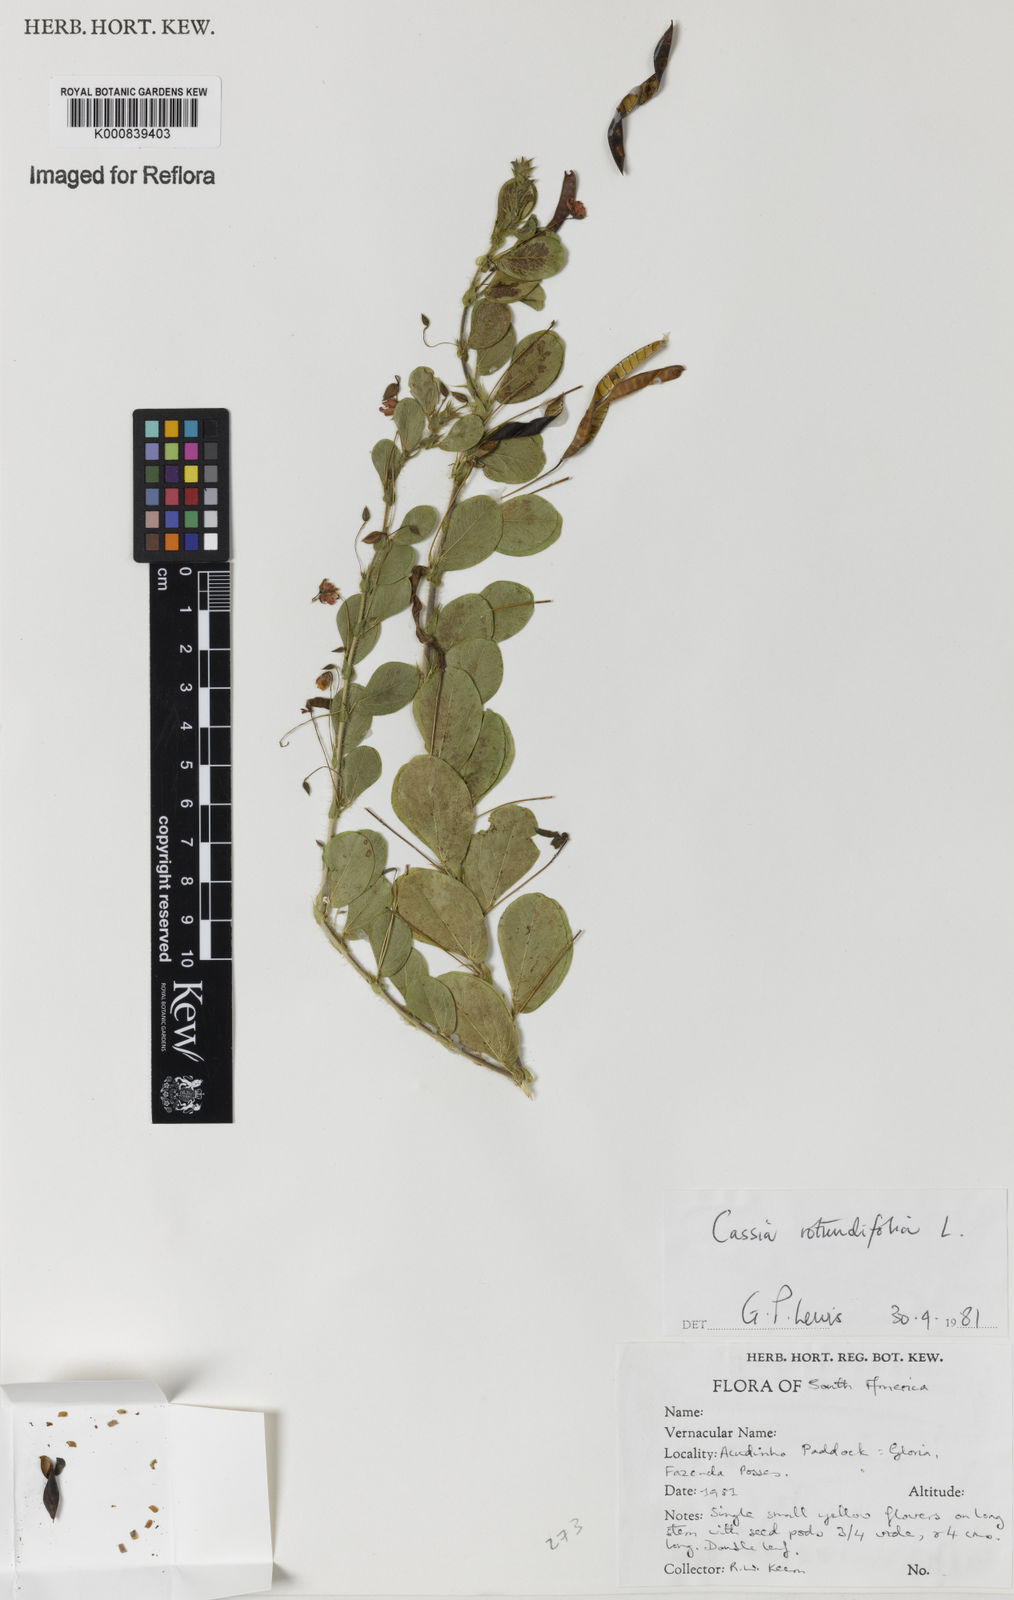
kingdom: Plantae
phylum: Tracheophyta
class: Magnoliopsida
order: Fabales
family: Fabaceae
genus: Chamaecrista
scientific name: Chamaecrista rotundifolia
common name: Round-leaf cassia
